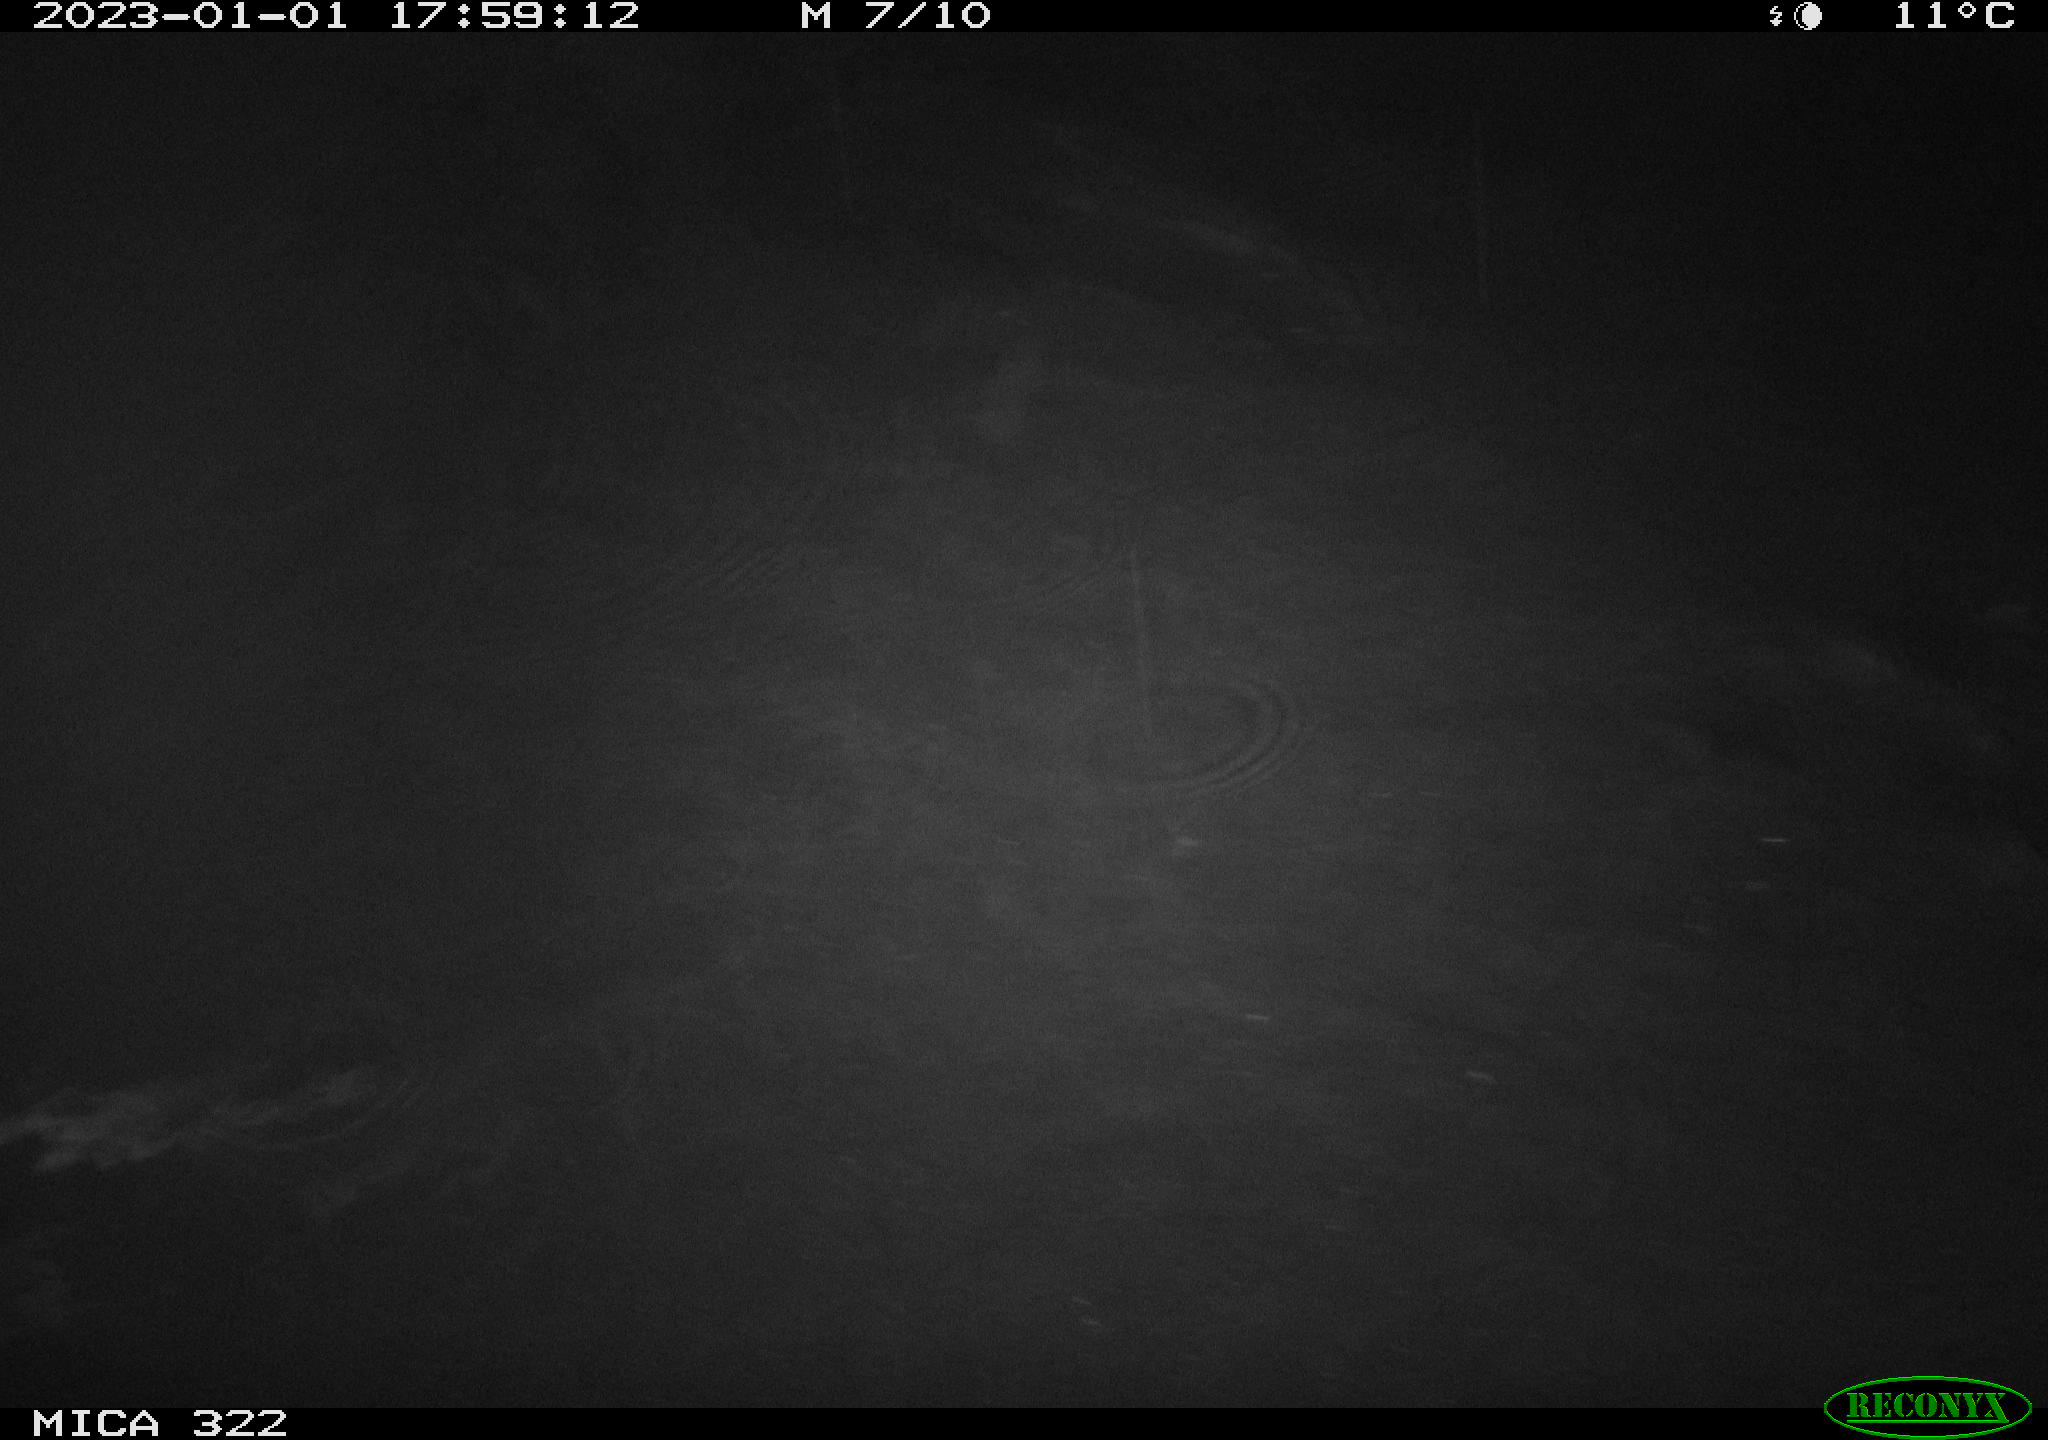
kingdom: Animalia
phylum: Chordata
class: Mammalia
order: Rodentia
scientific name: Rodentia
